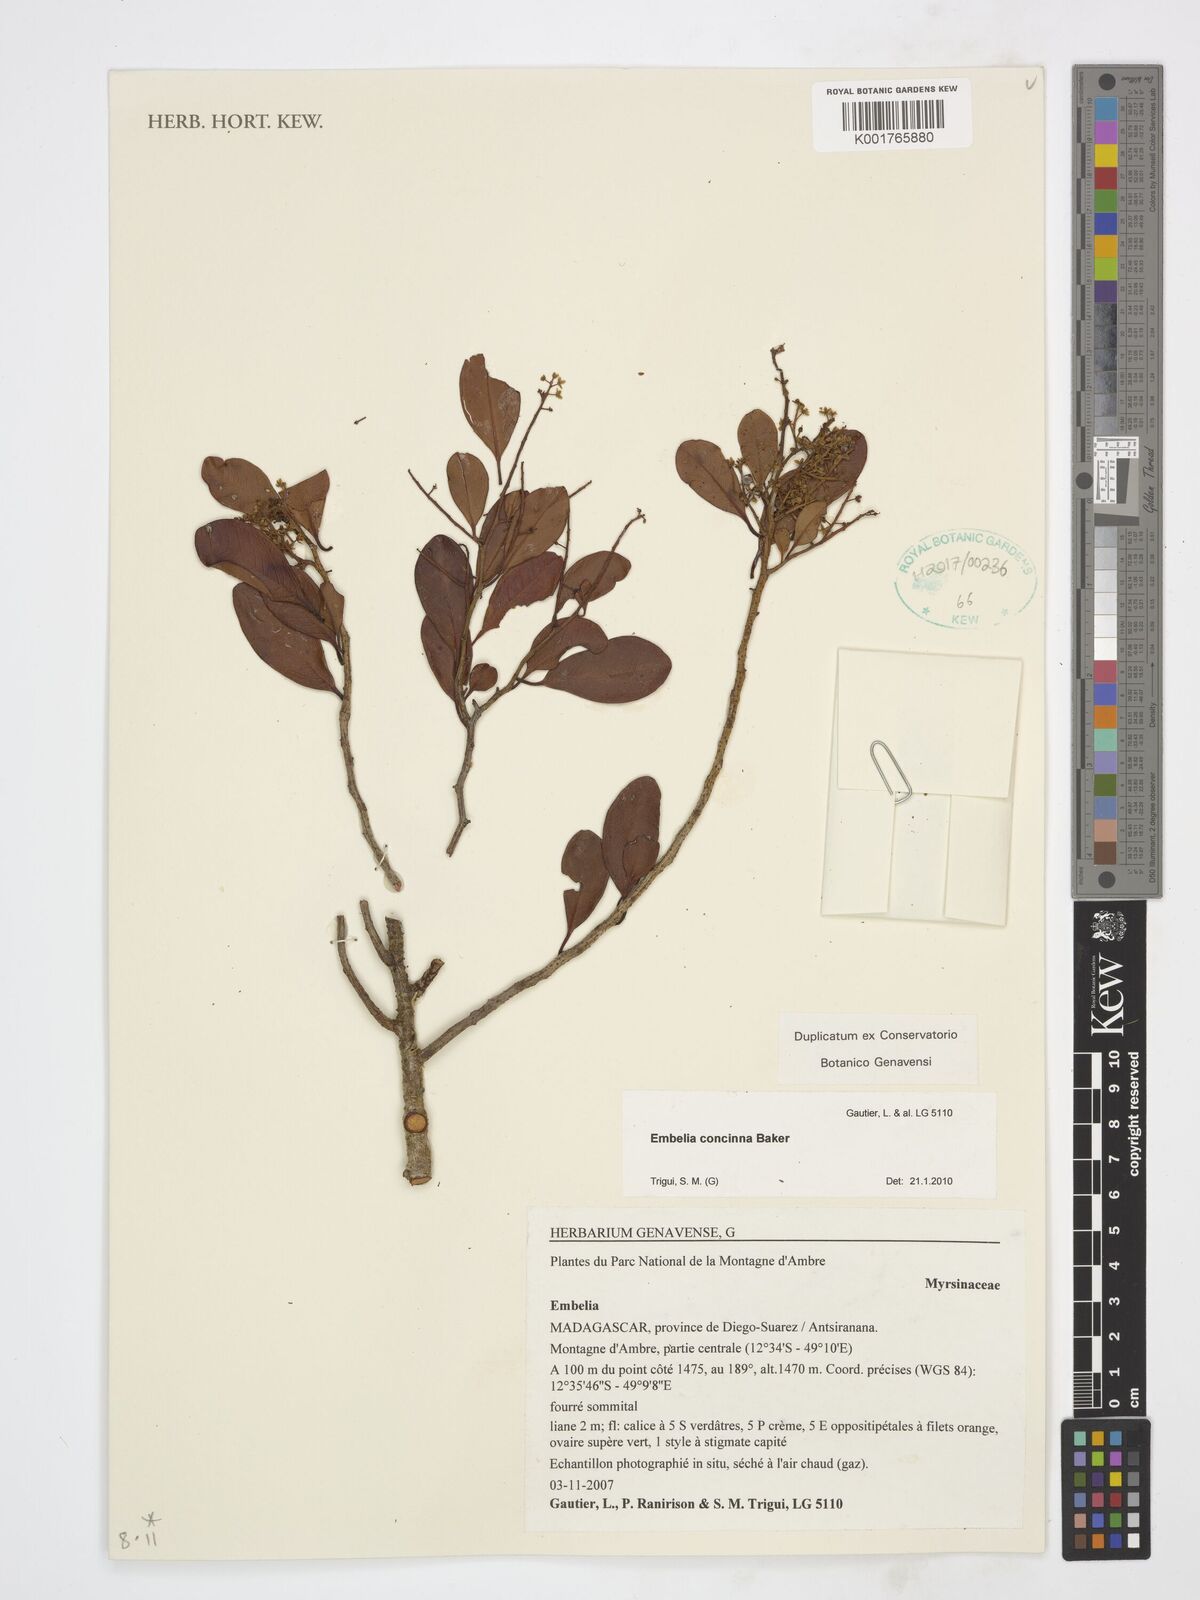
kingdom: Plantae
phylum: Tracheophyta
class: Magnoliopsida
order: Ericales
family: Primulaceae
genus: Embelia
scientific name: Embelia concinna
